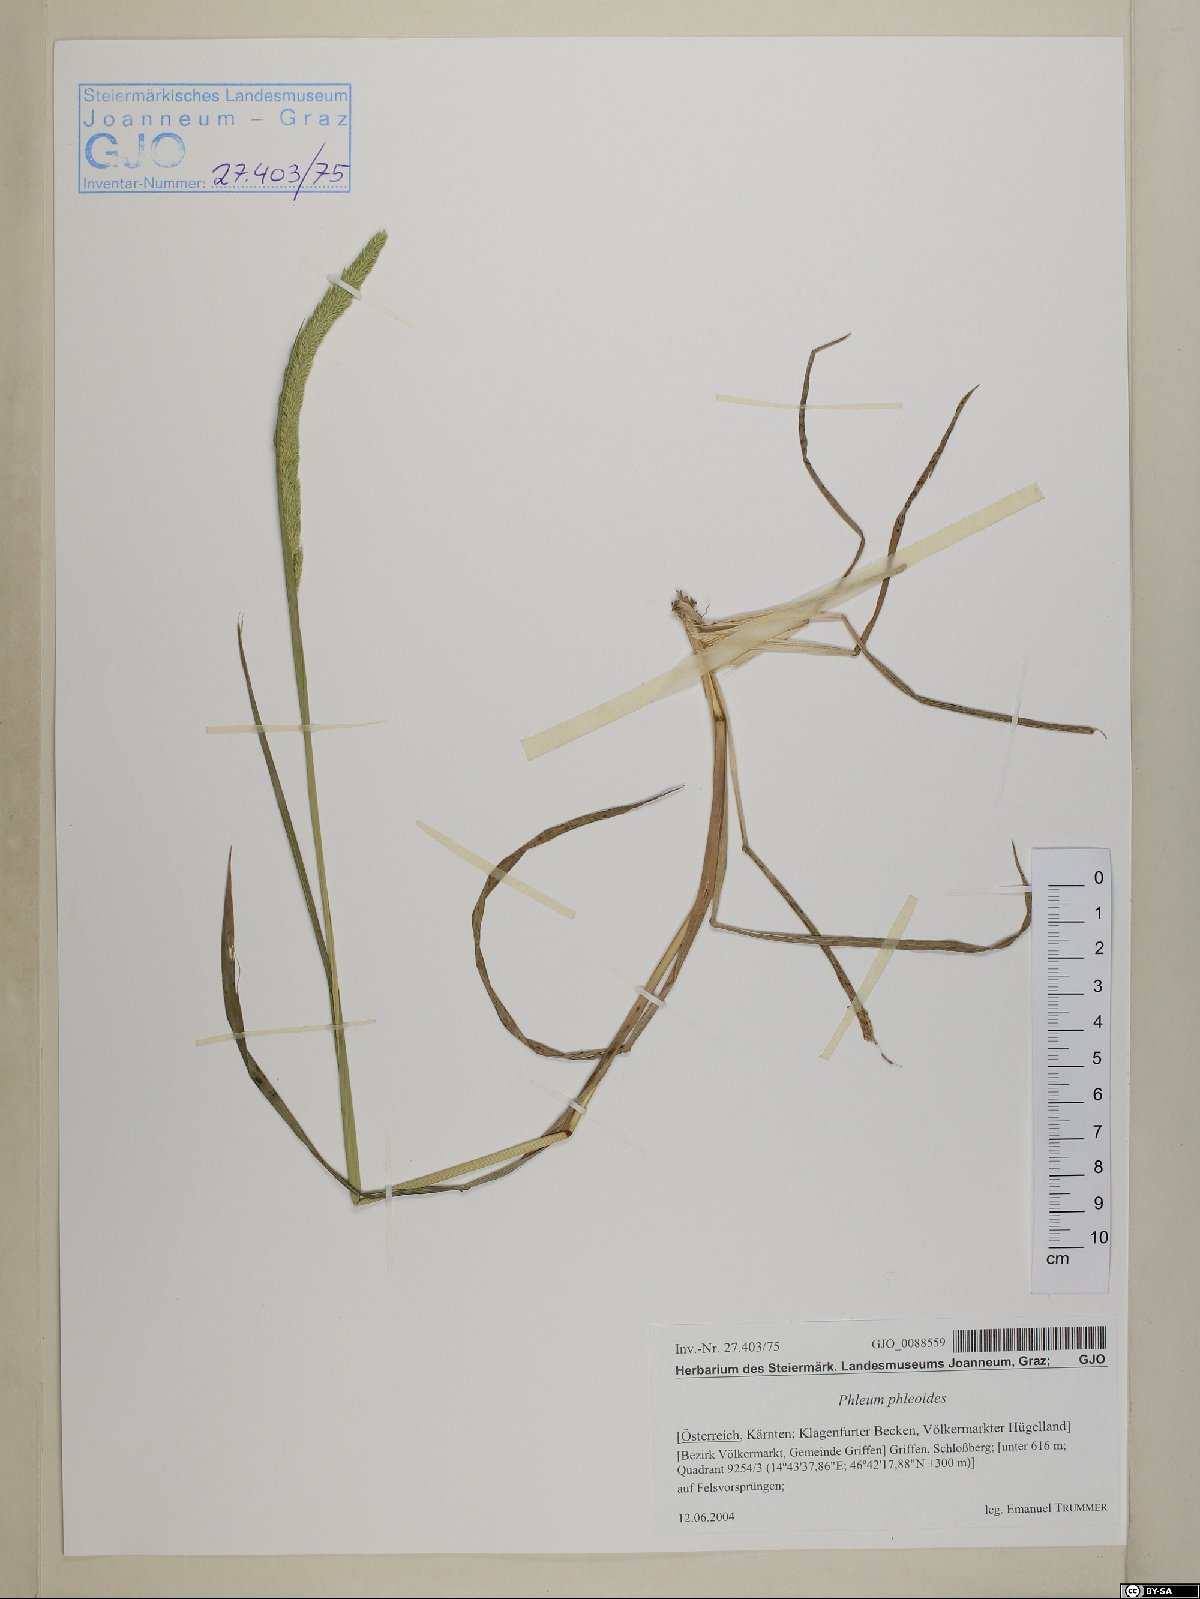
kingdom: Plantae
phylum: Tracheophyta
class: Liliopsida
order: Poales
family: Poaceae
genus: Phleum
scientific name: Phleum phleoides
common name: Purple-stem cat's-tail
